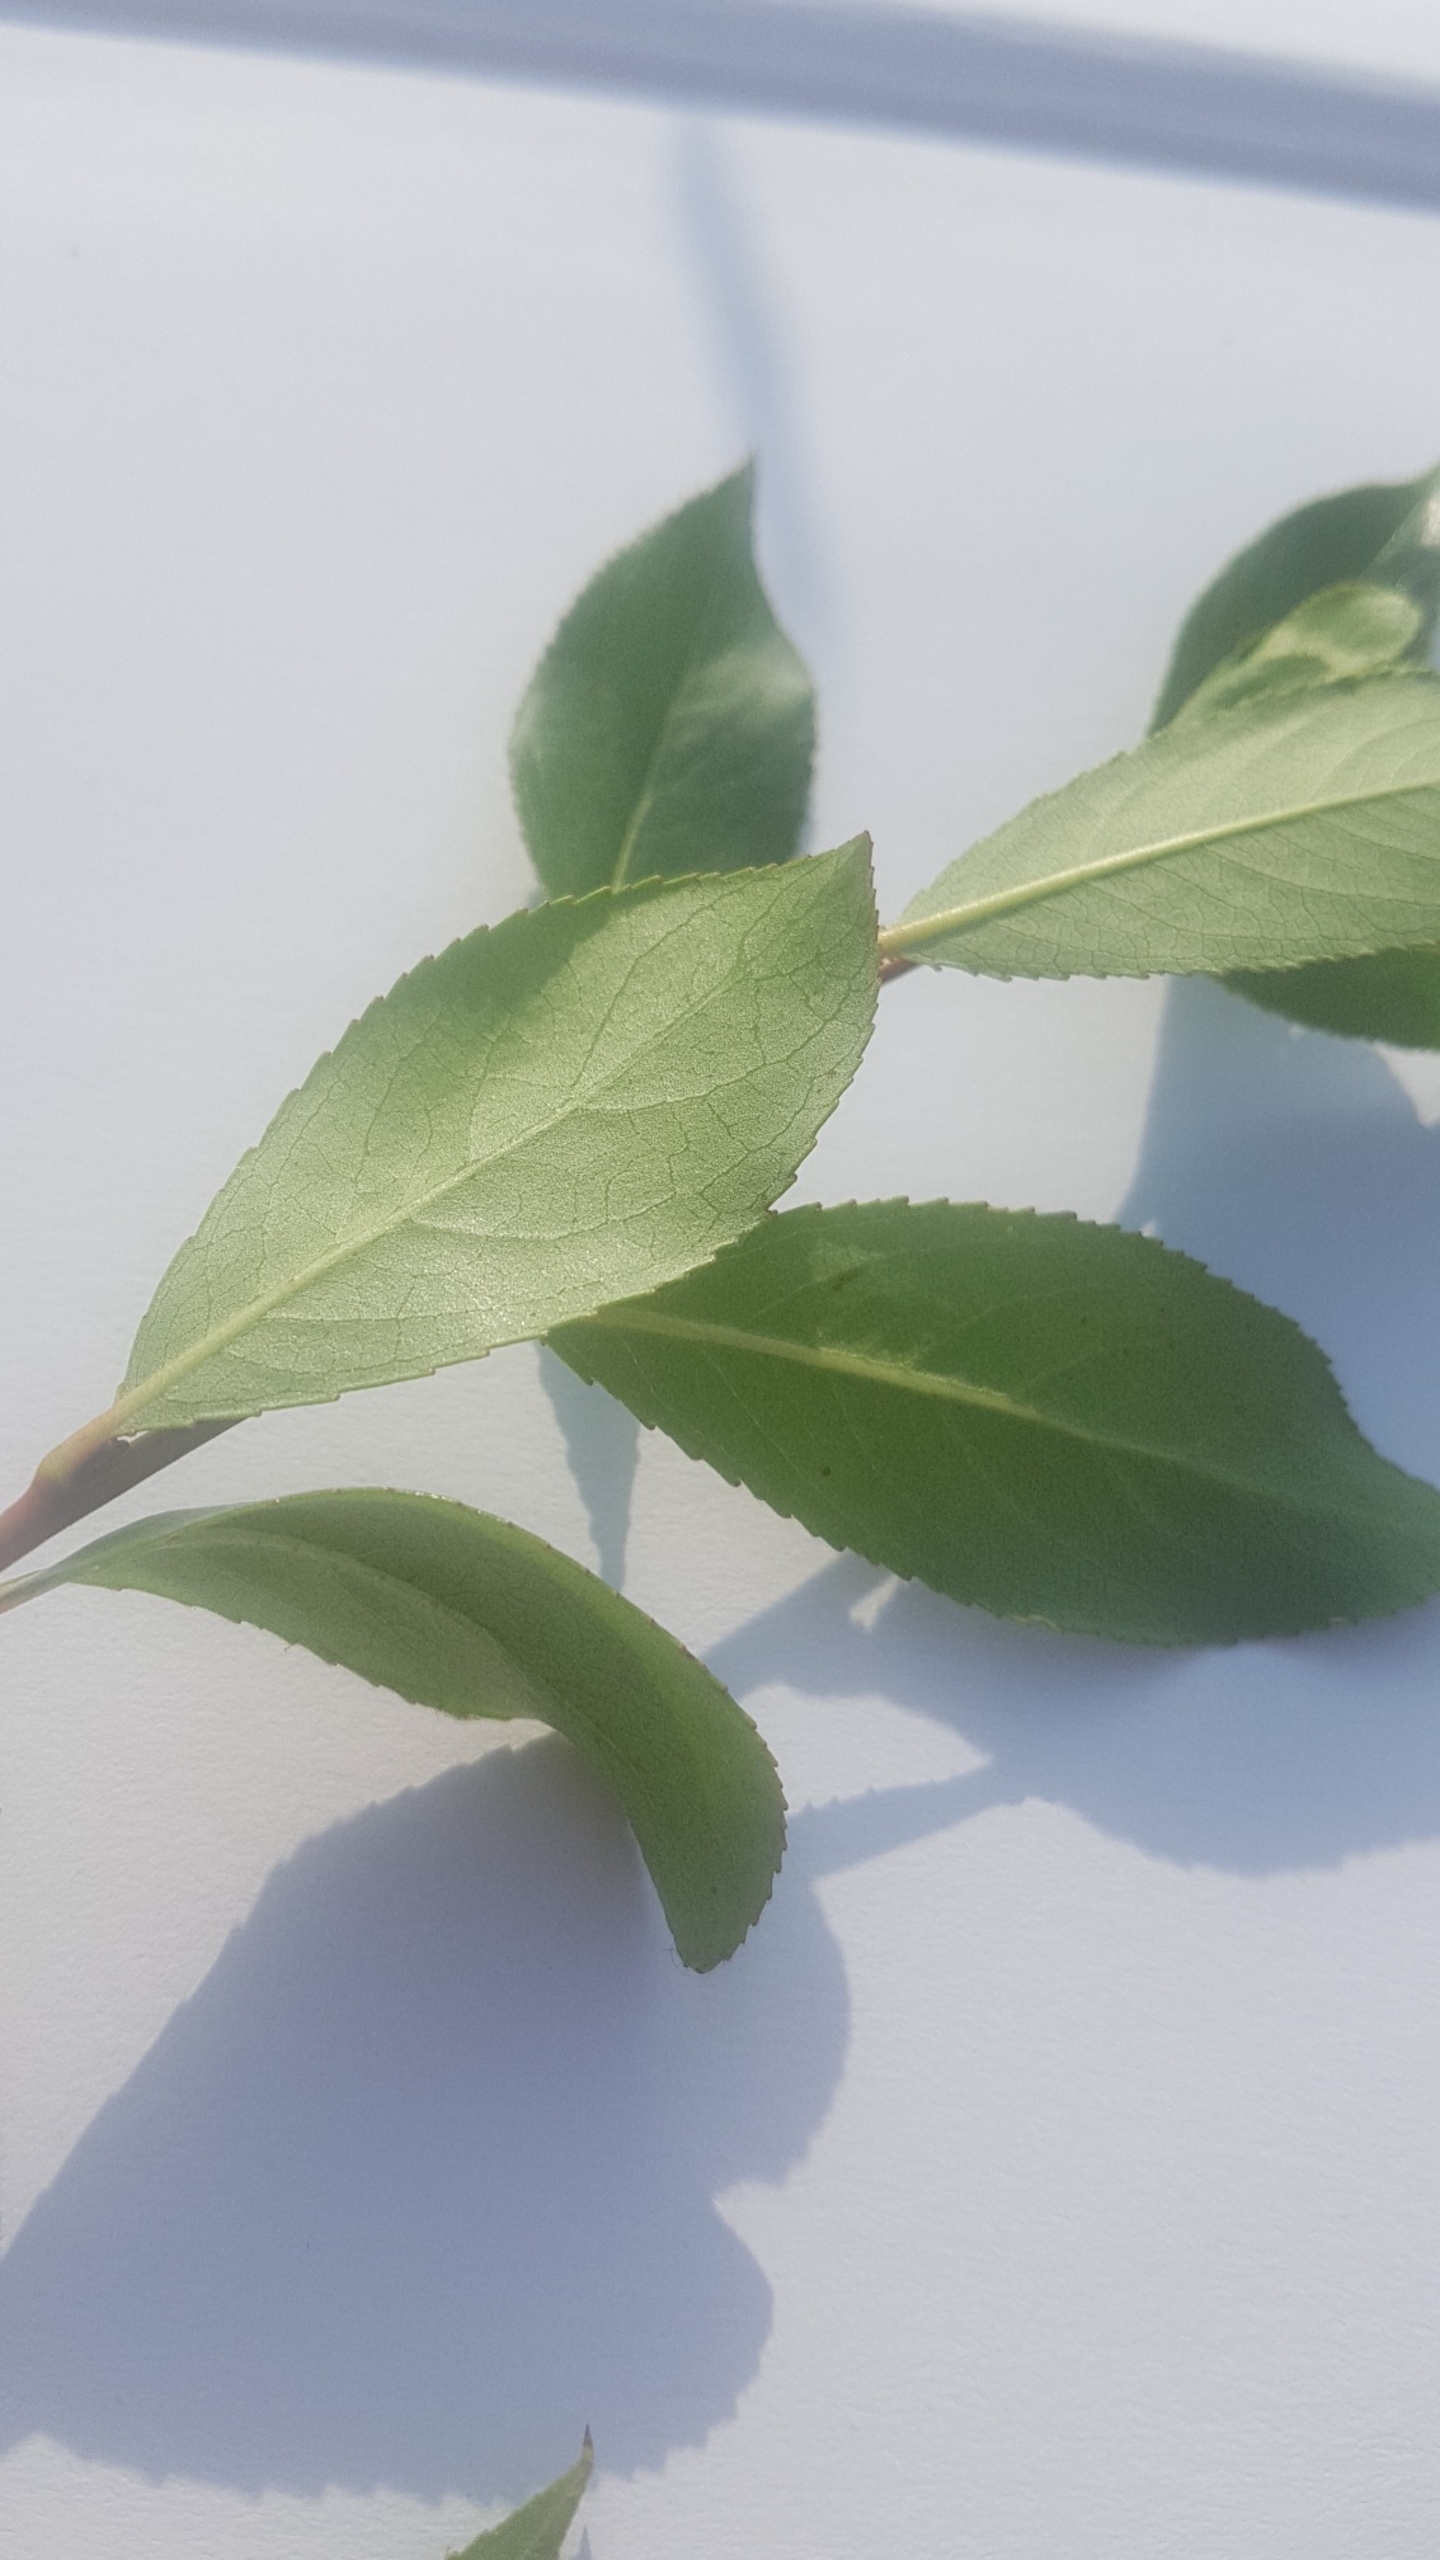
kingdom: Plantae
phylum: Tracheophyta
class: Magnoliopsida
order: Malpighiales
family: Salicaceae
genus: Salix
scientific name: Salix pentandra
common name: Femhannet pil
